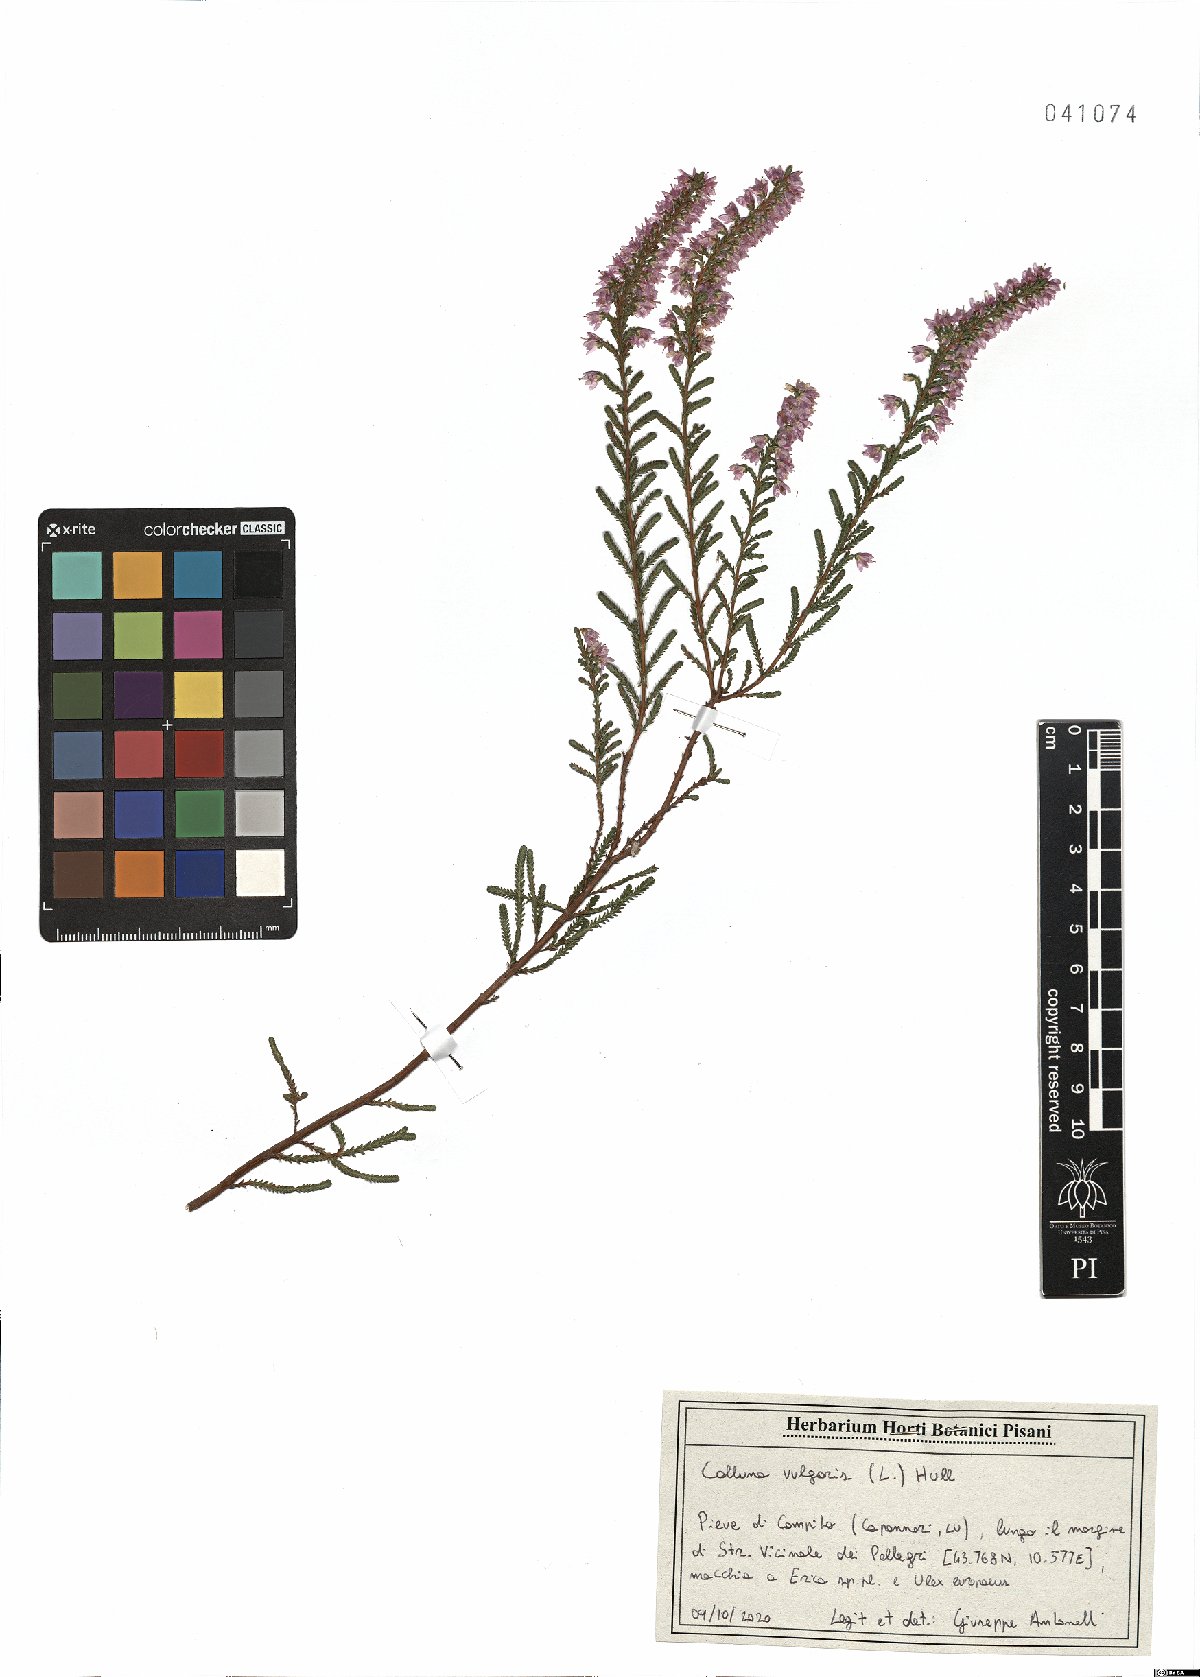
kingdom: Plantae
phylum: Tracheophyta
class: Magnoliopsida
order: Ericales
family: Ericaceae
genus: Calluna
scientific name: Calluna vulgaris
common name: Heather
